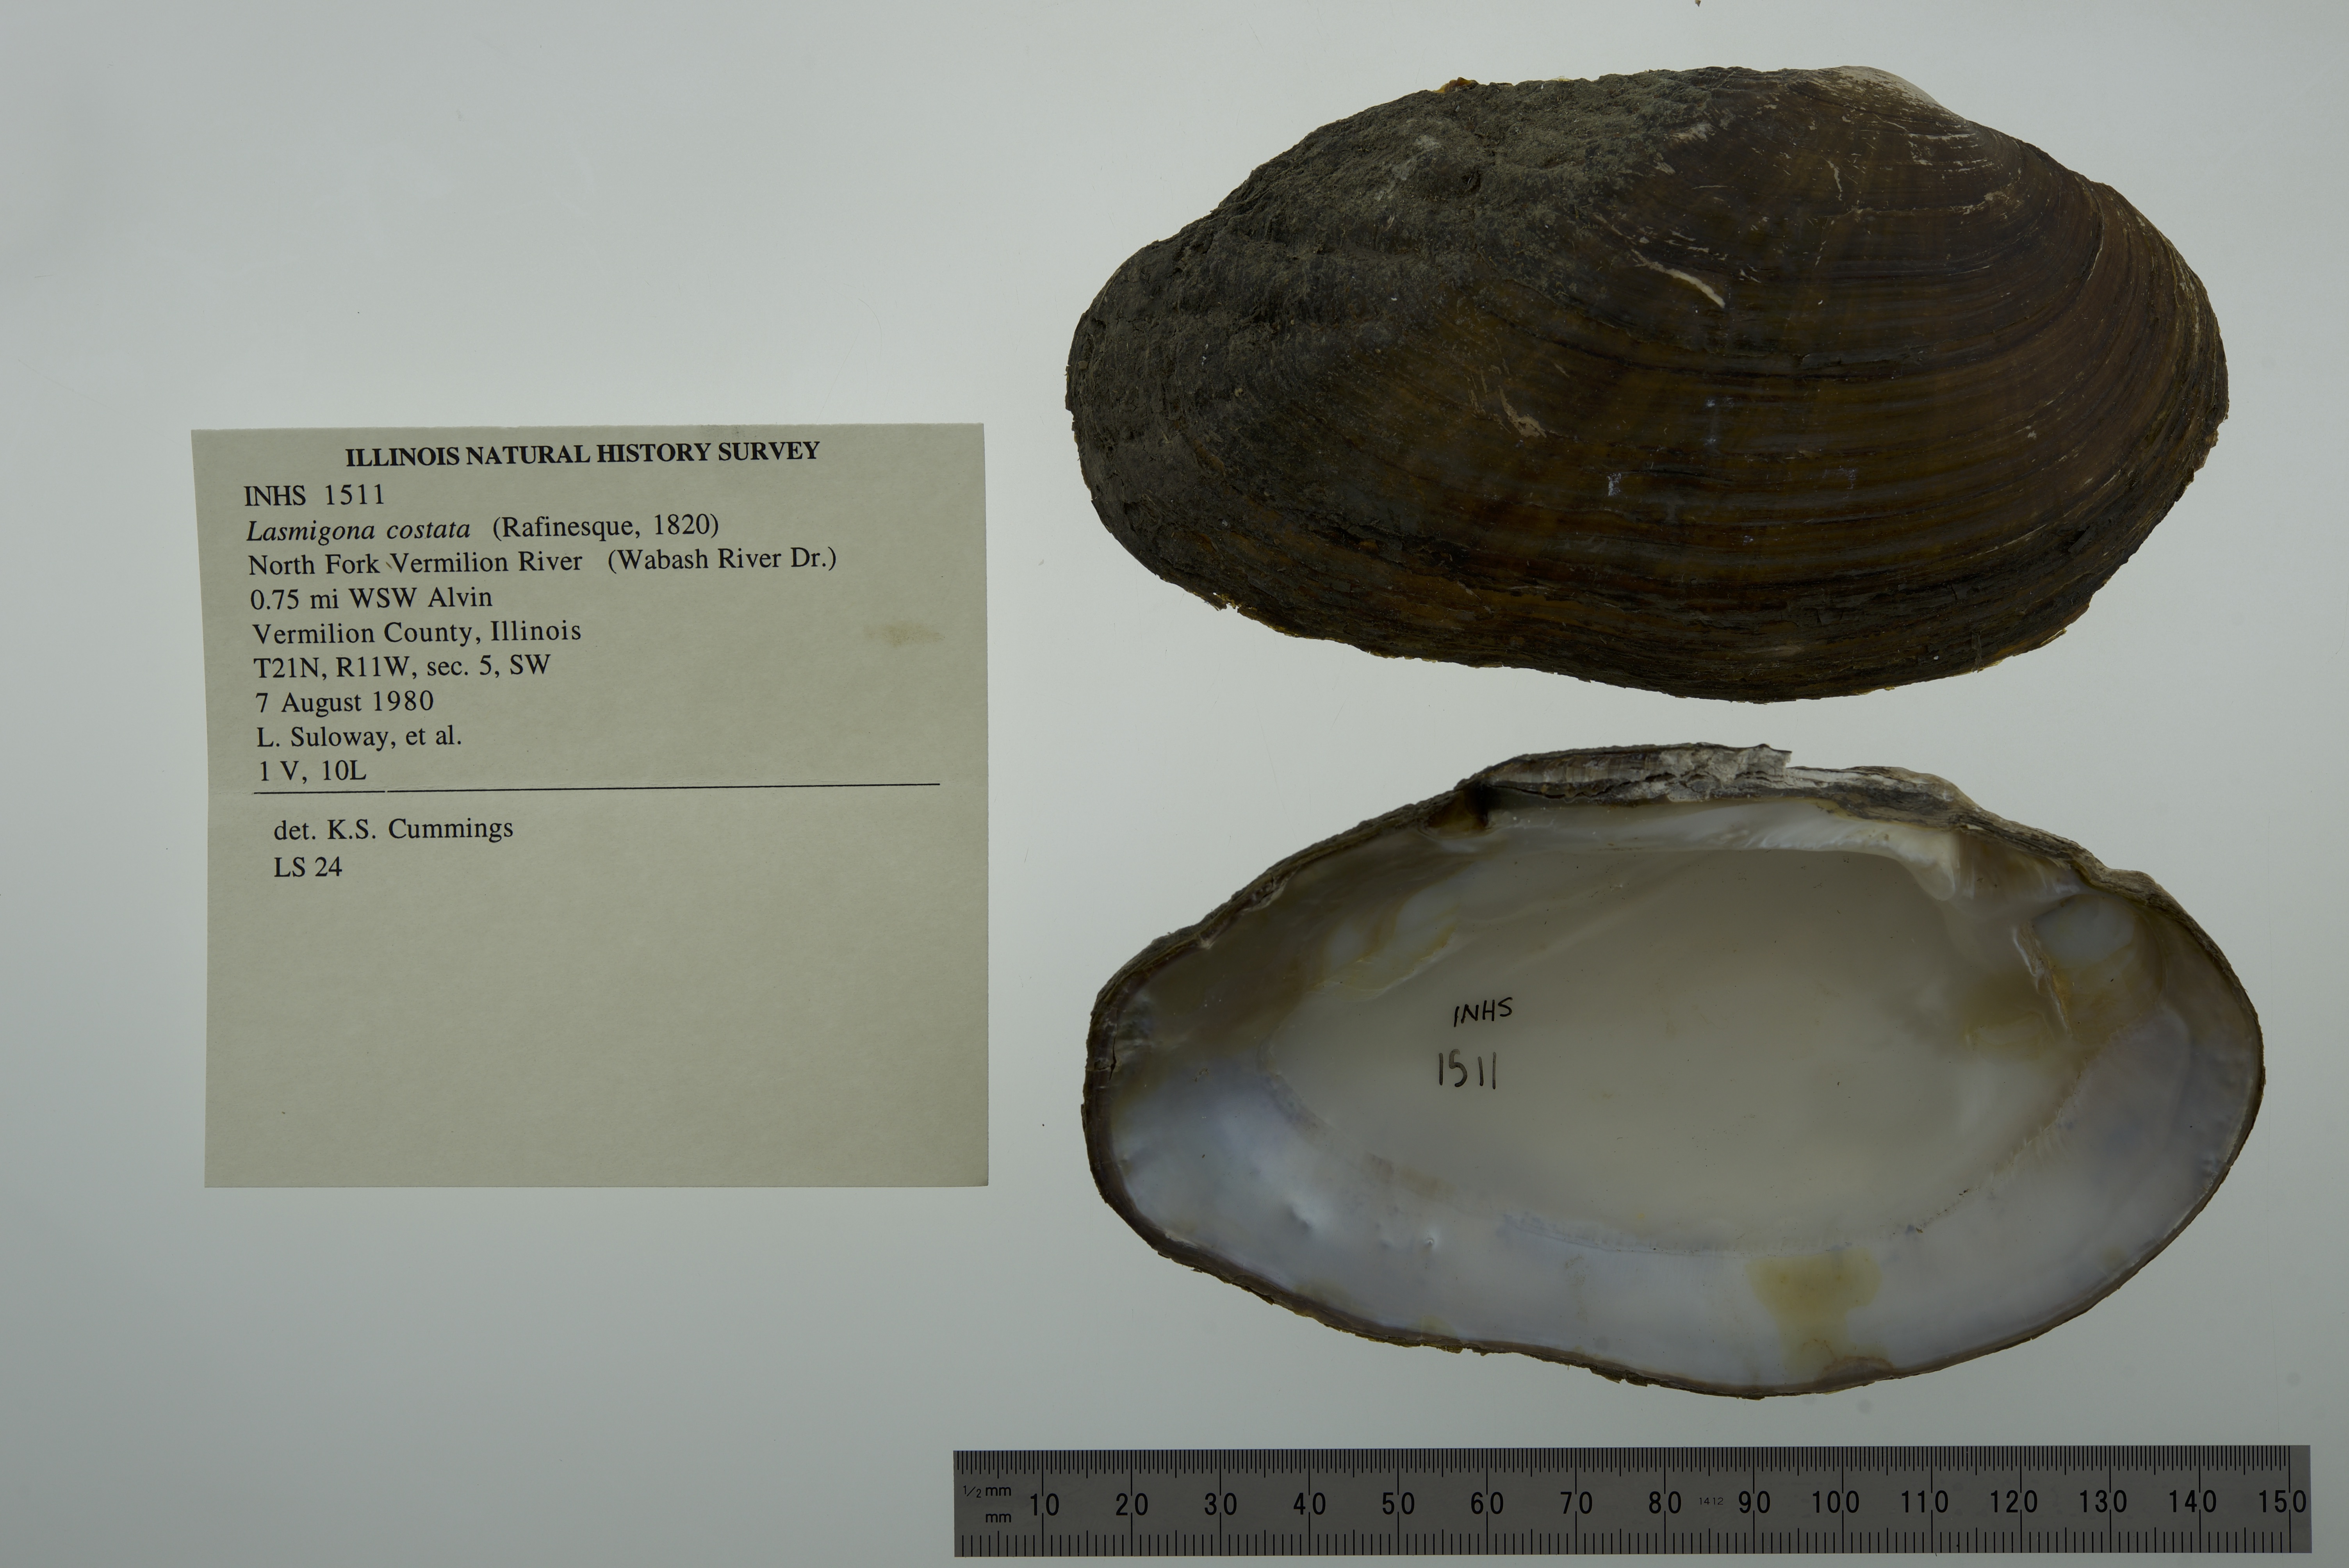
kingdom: Animalia
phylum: Mollusca
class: Bivalvia
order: Unionida
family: Unionidae
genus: Lasmigona
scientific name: Lasmigona costata
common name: Flutedshell
